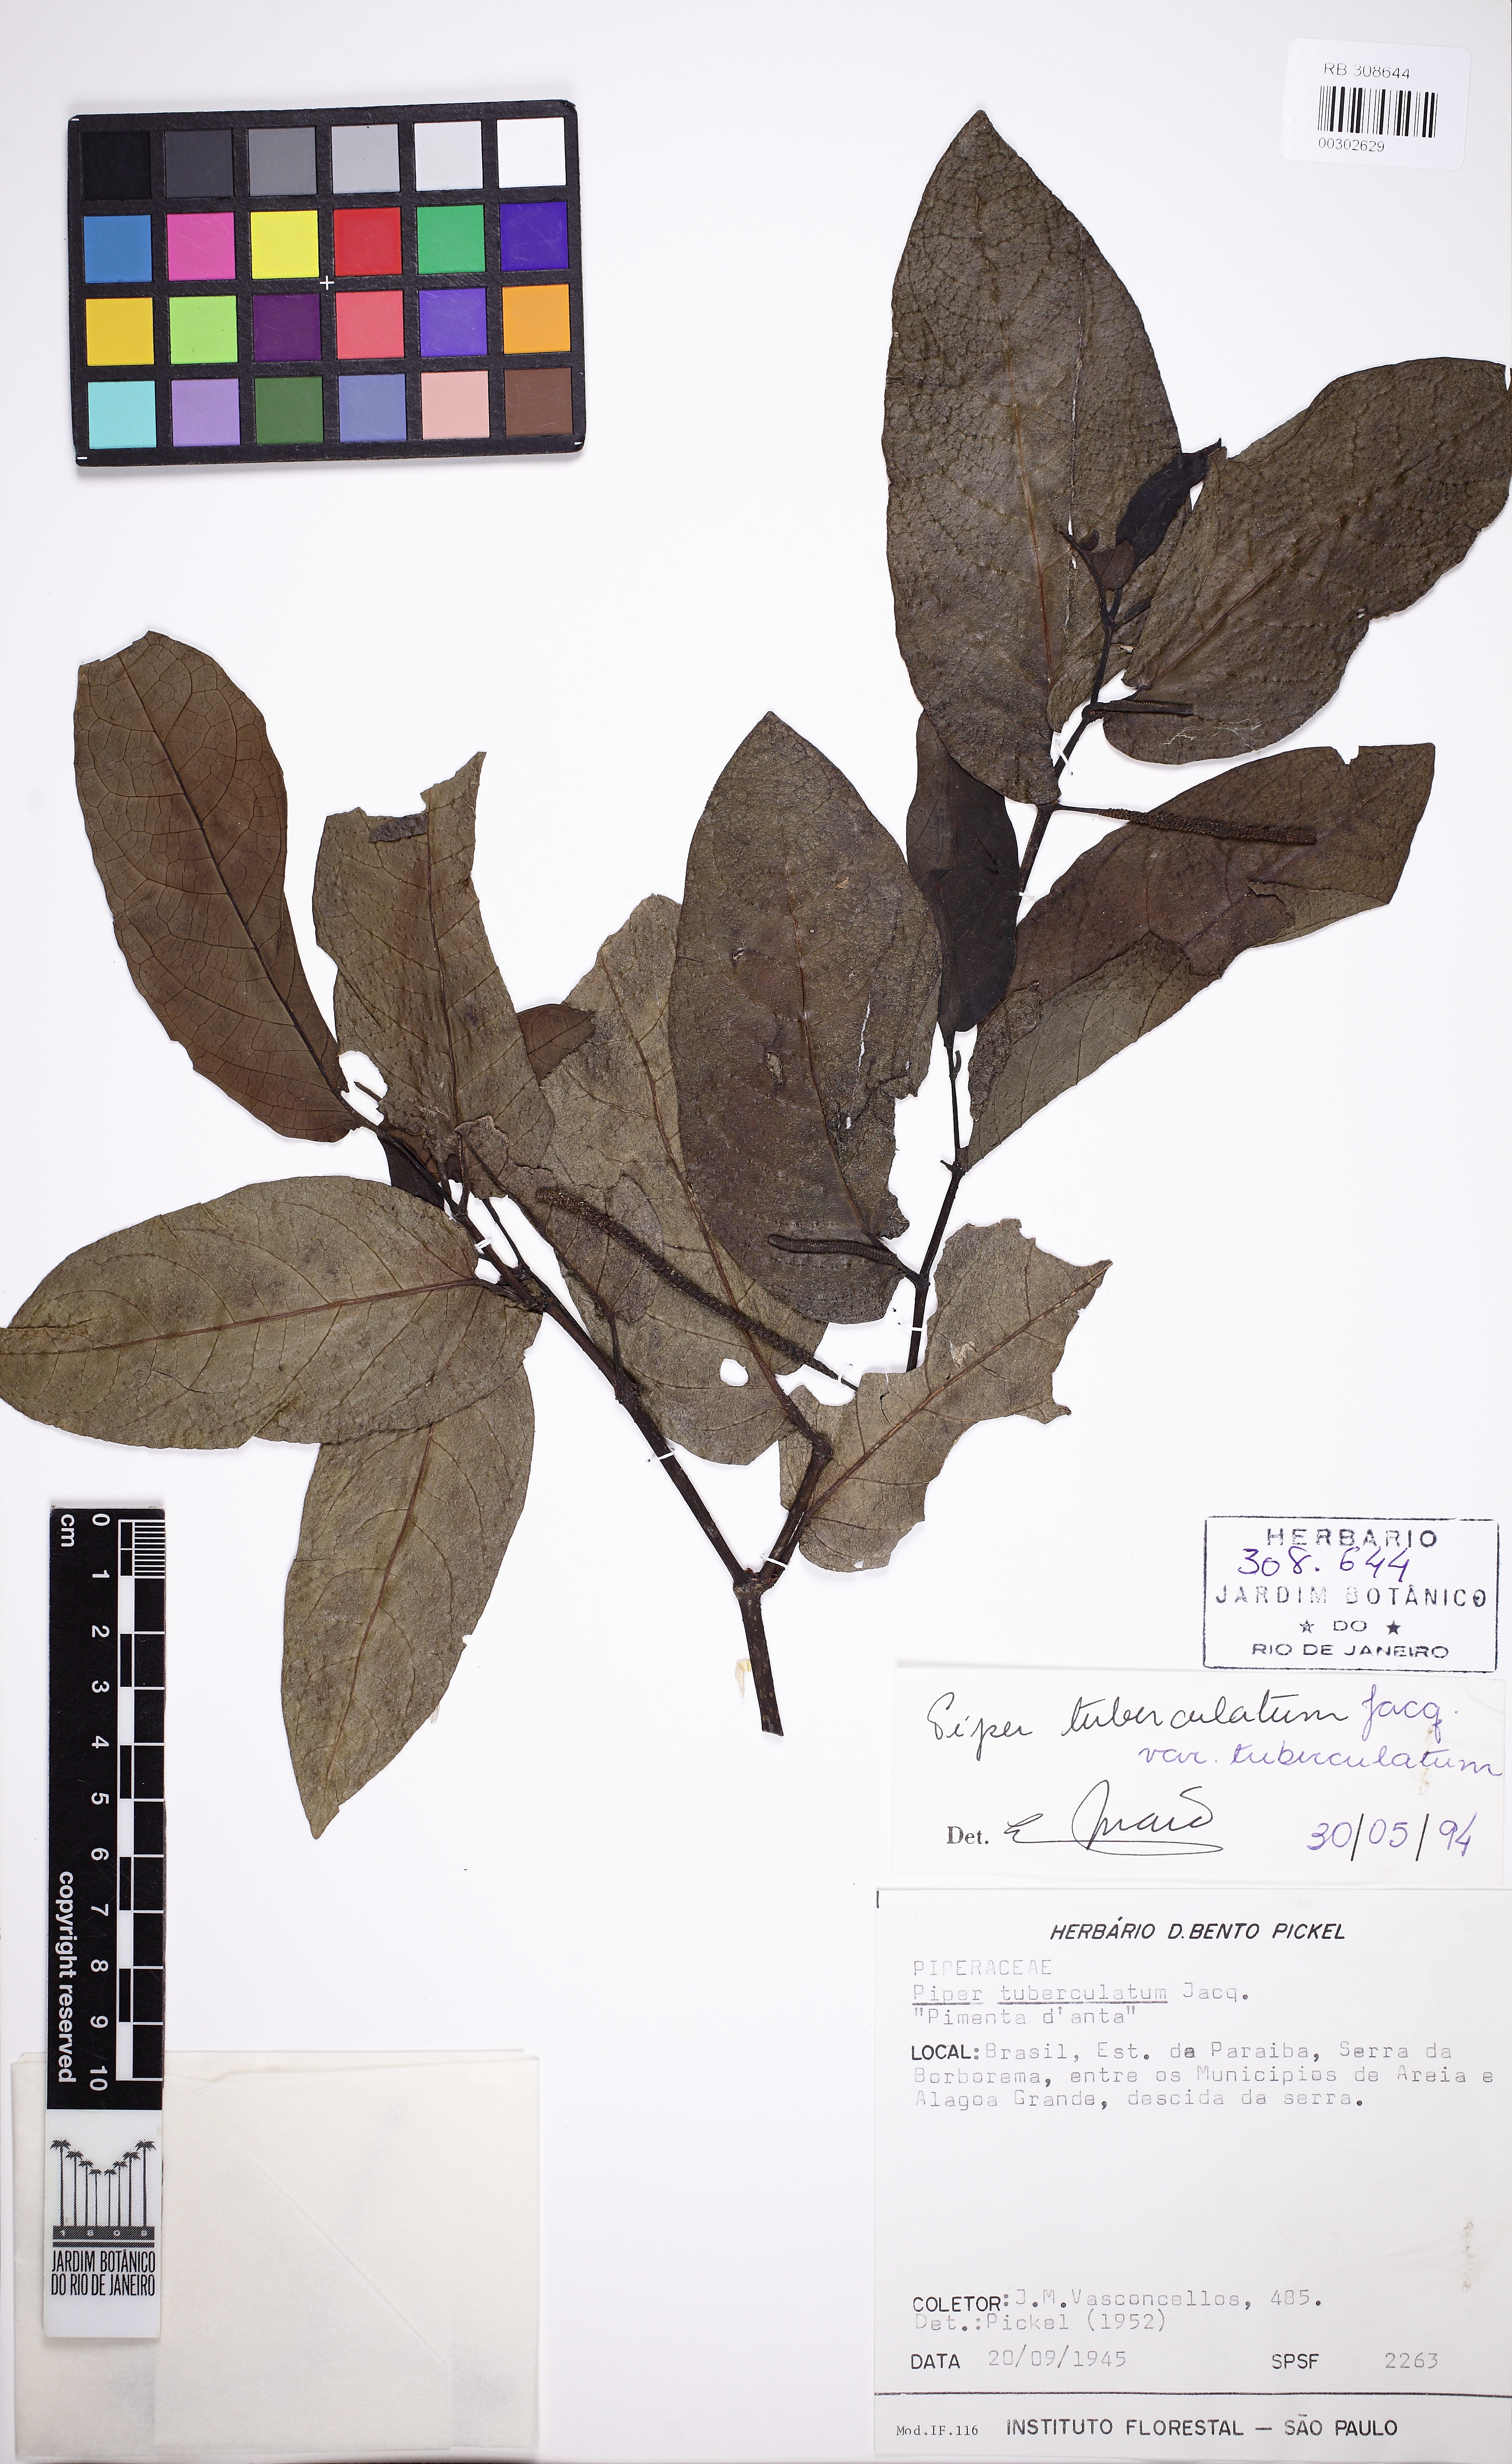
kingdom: Plantae
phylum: Tracheophyta
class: Magnoliopsida
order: Piperales
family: Piperaceae
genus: Piper
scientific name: Piper tuberculatum
